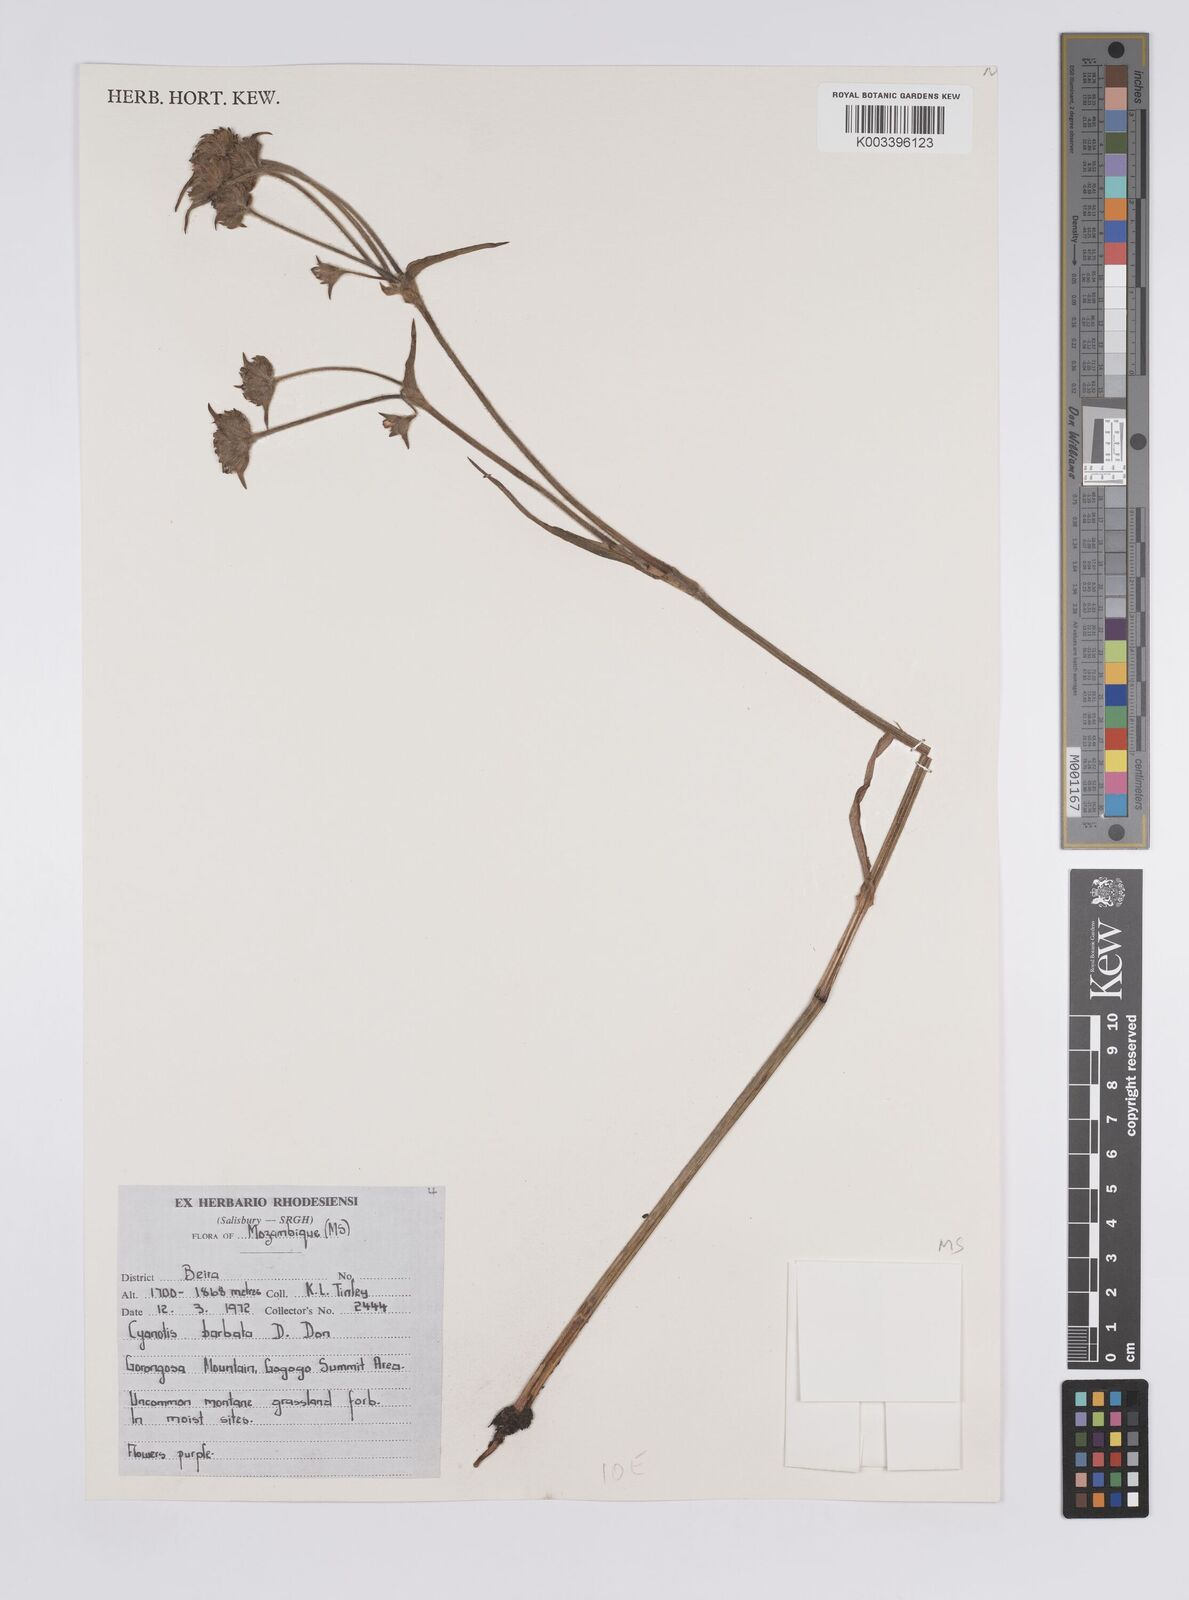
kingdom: Plantae
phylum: Tracheophyta
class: Liliopsida
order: Commelinales
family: Commelinaceae
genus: Cyanotis
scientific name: Cyanotis vaga
